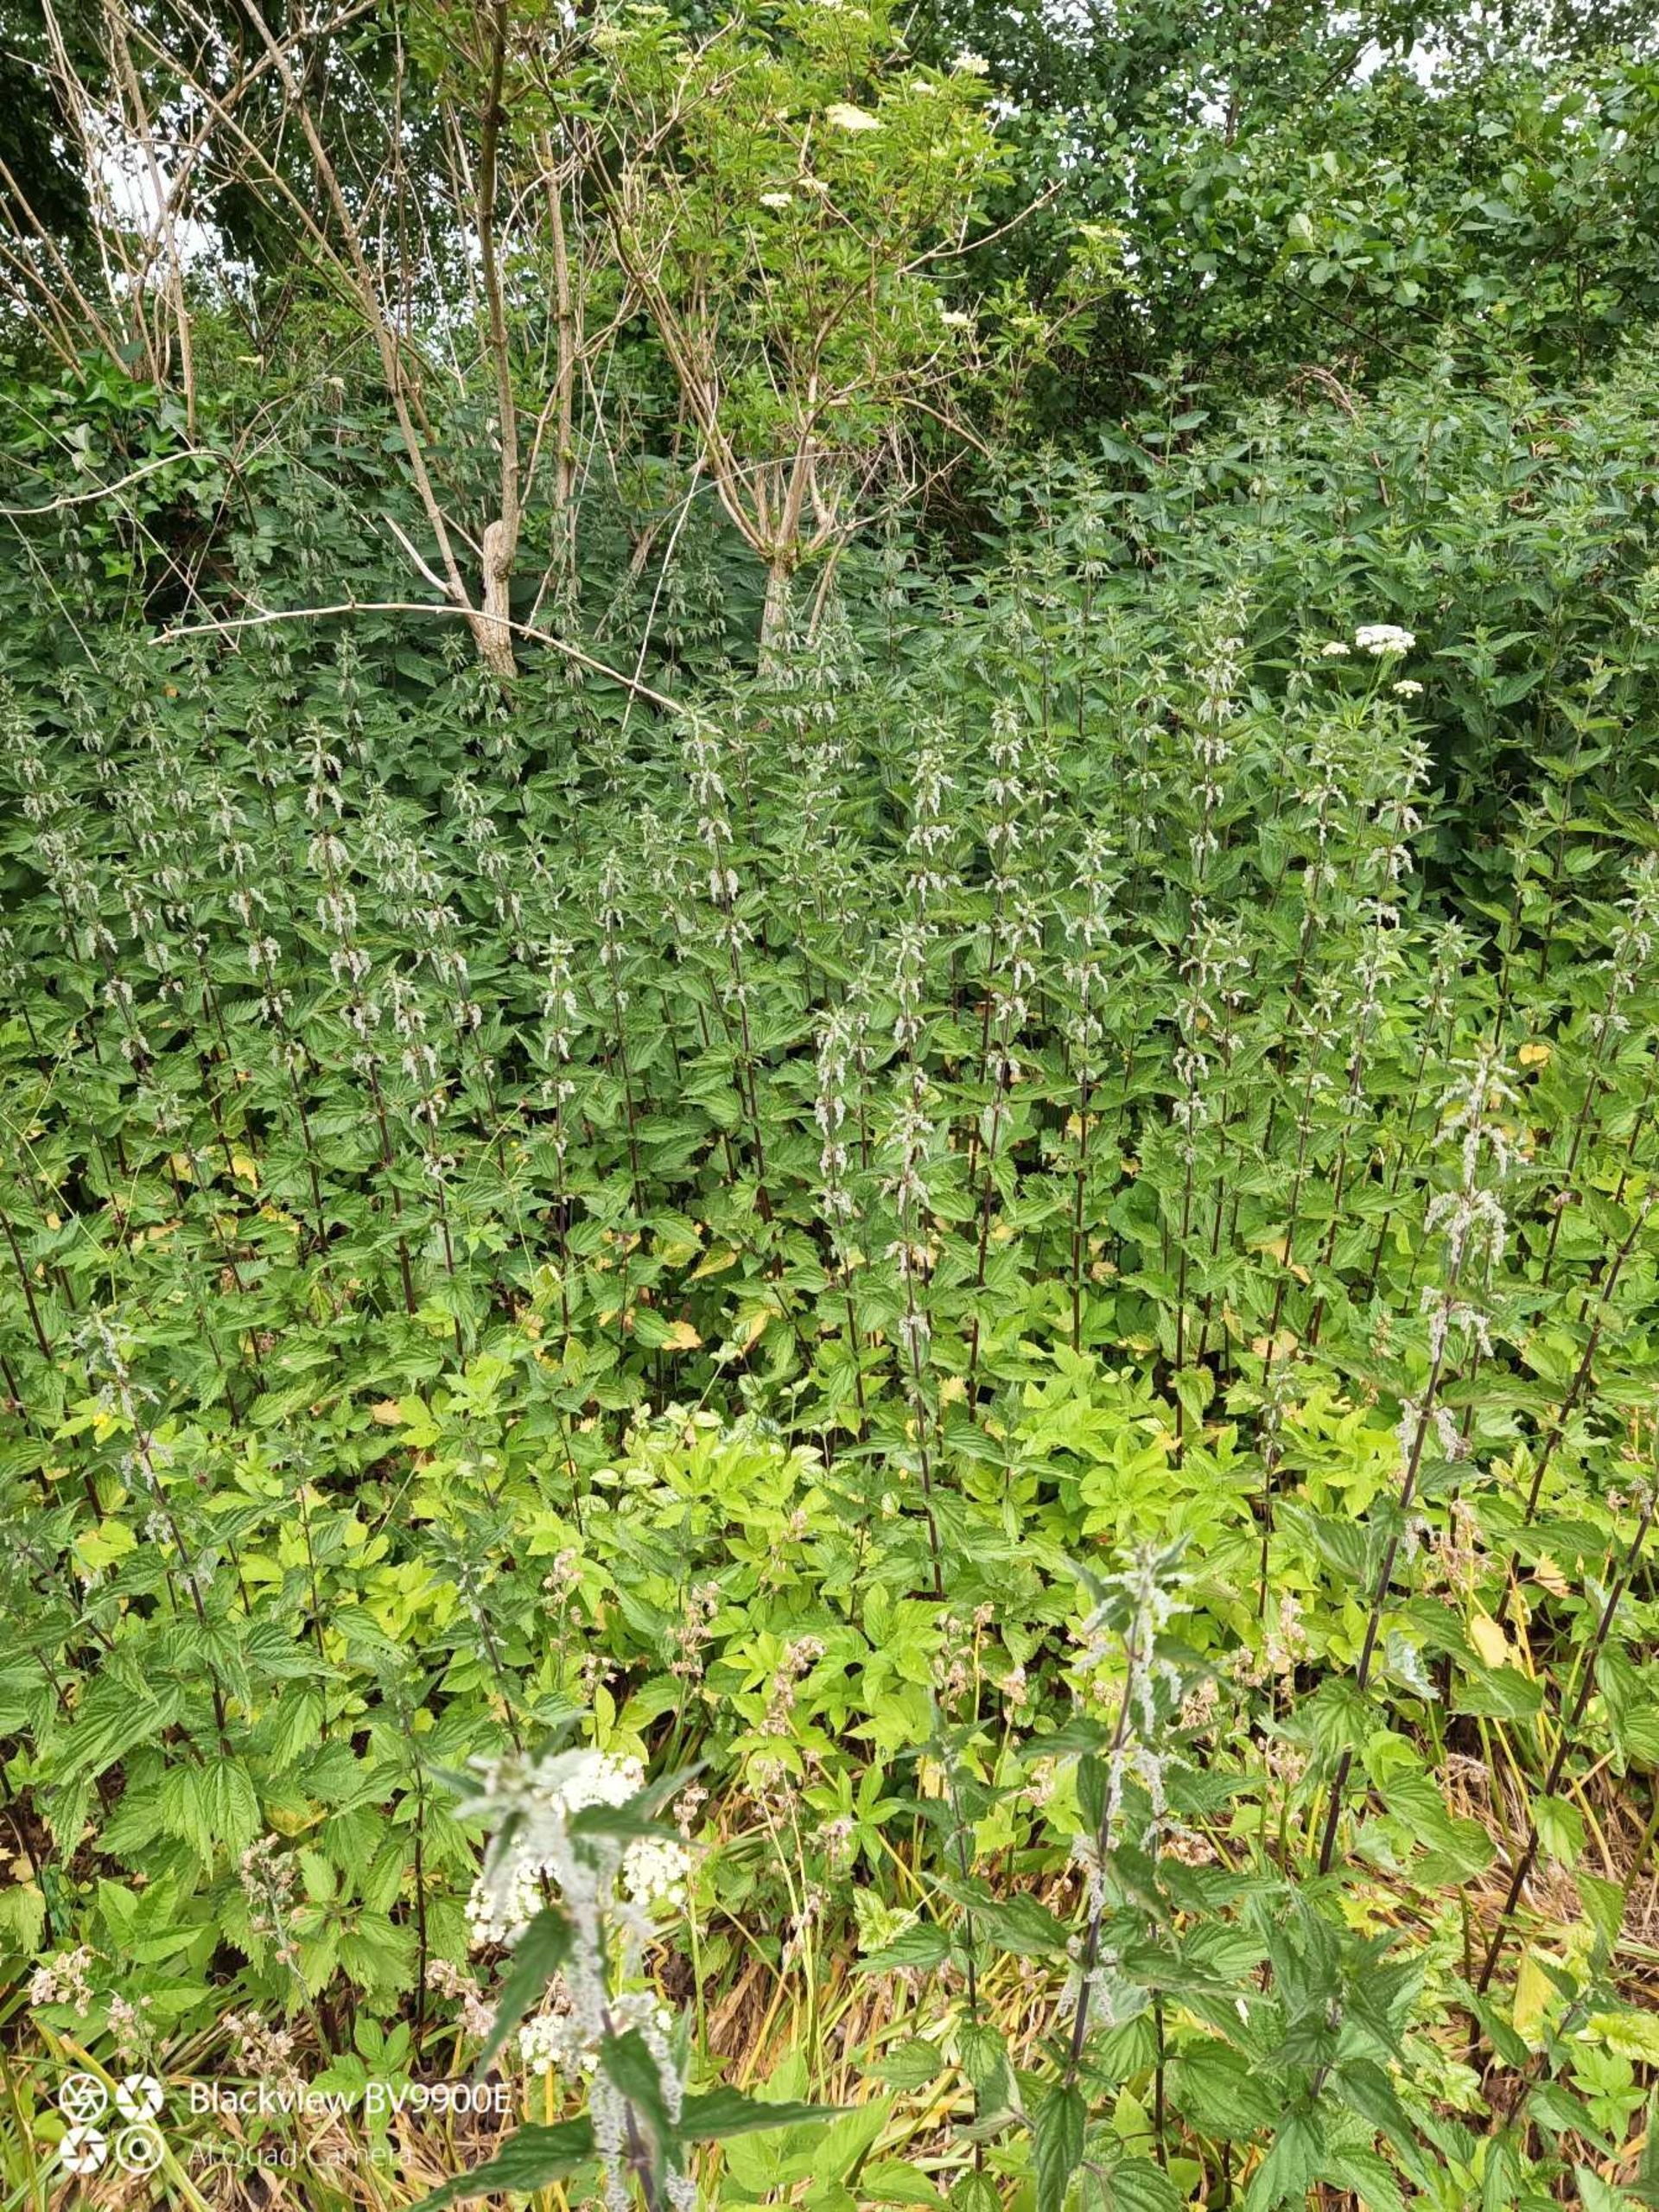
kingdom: Plantae
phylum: Tracheophyta
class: Magnoliopsida
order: Rosales
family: Urticaceae
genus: Urtica
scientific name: Urtica dioica
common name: Stor nælde
